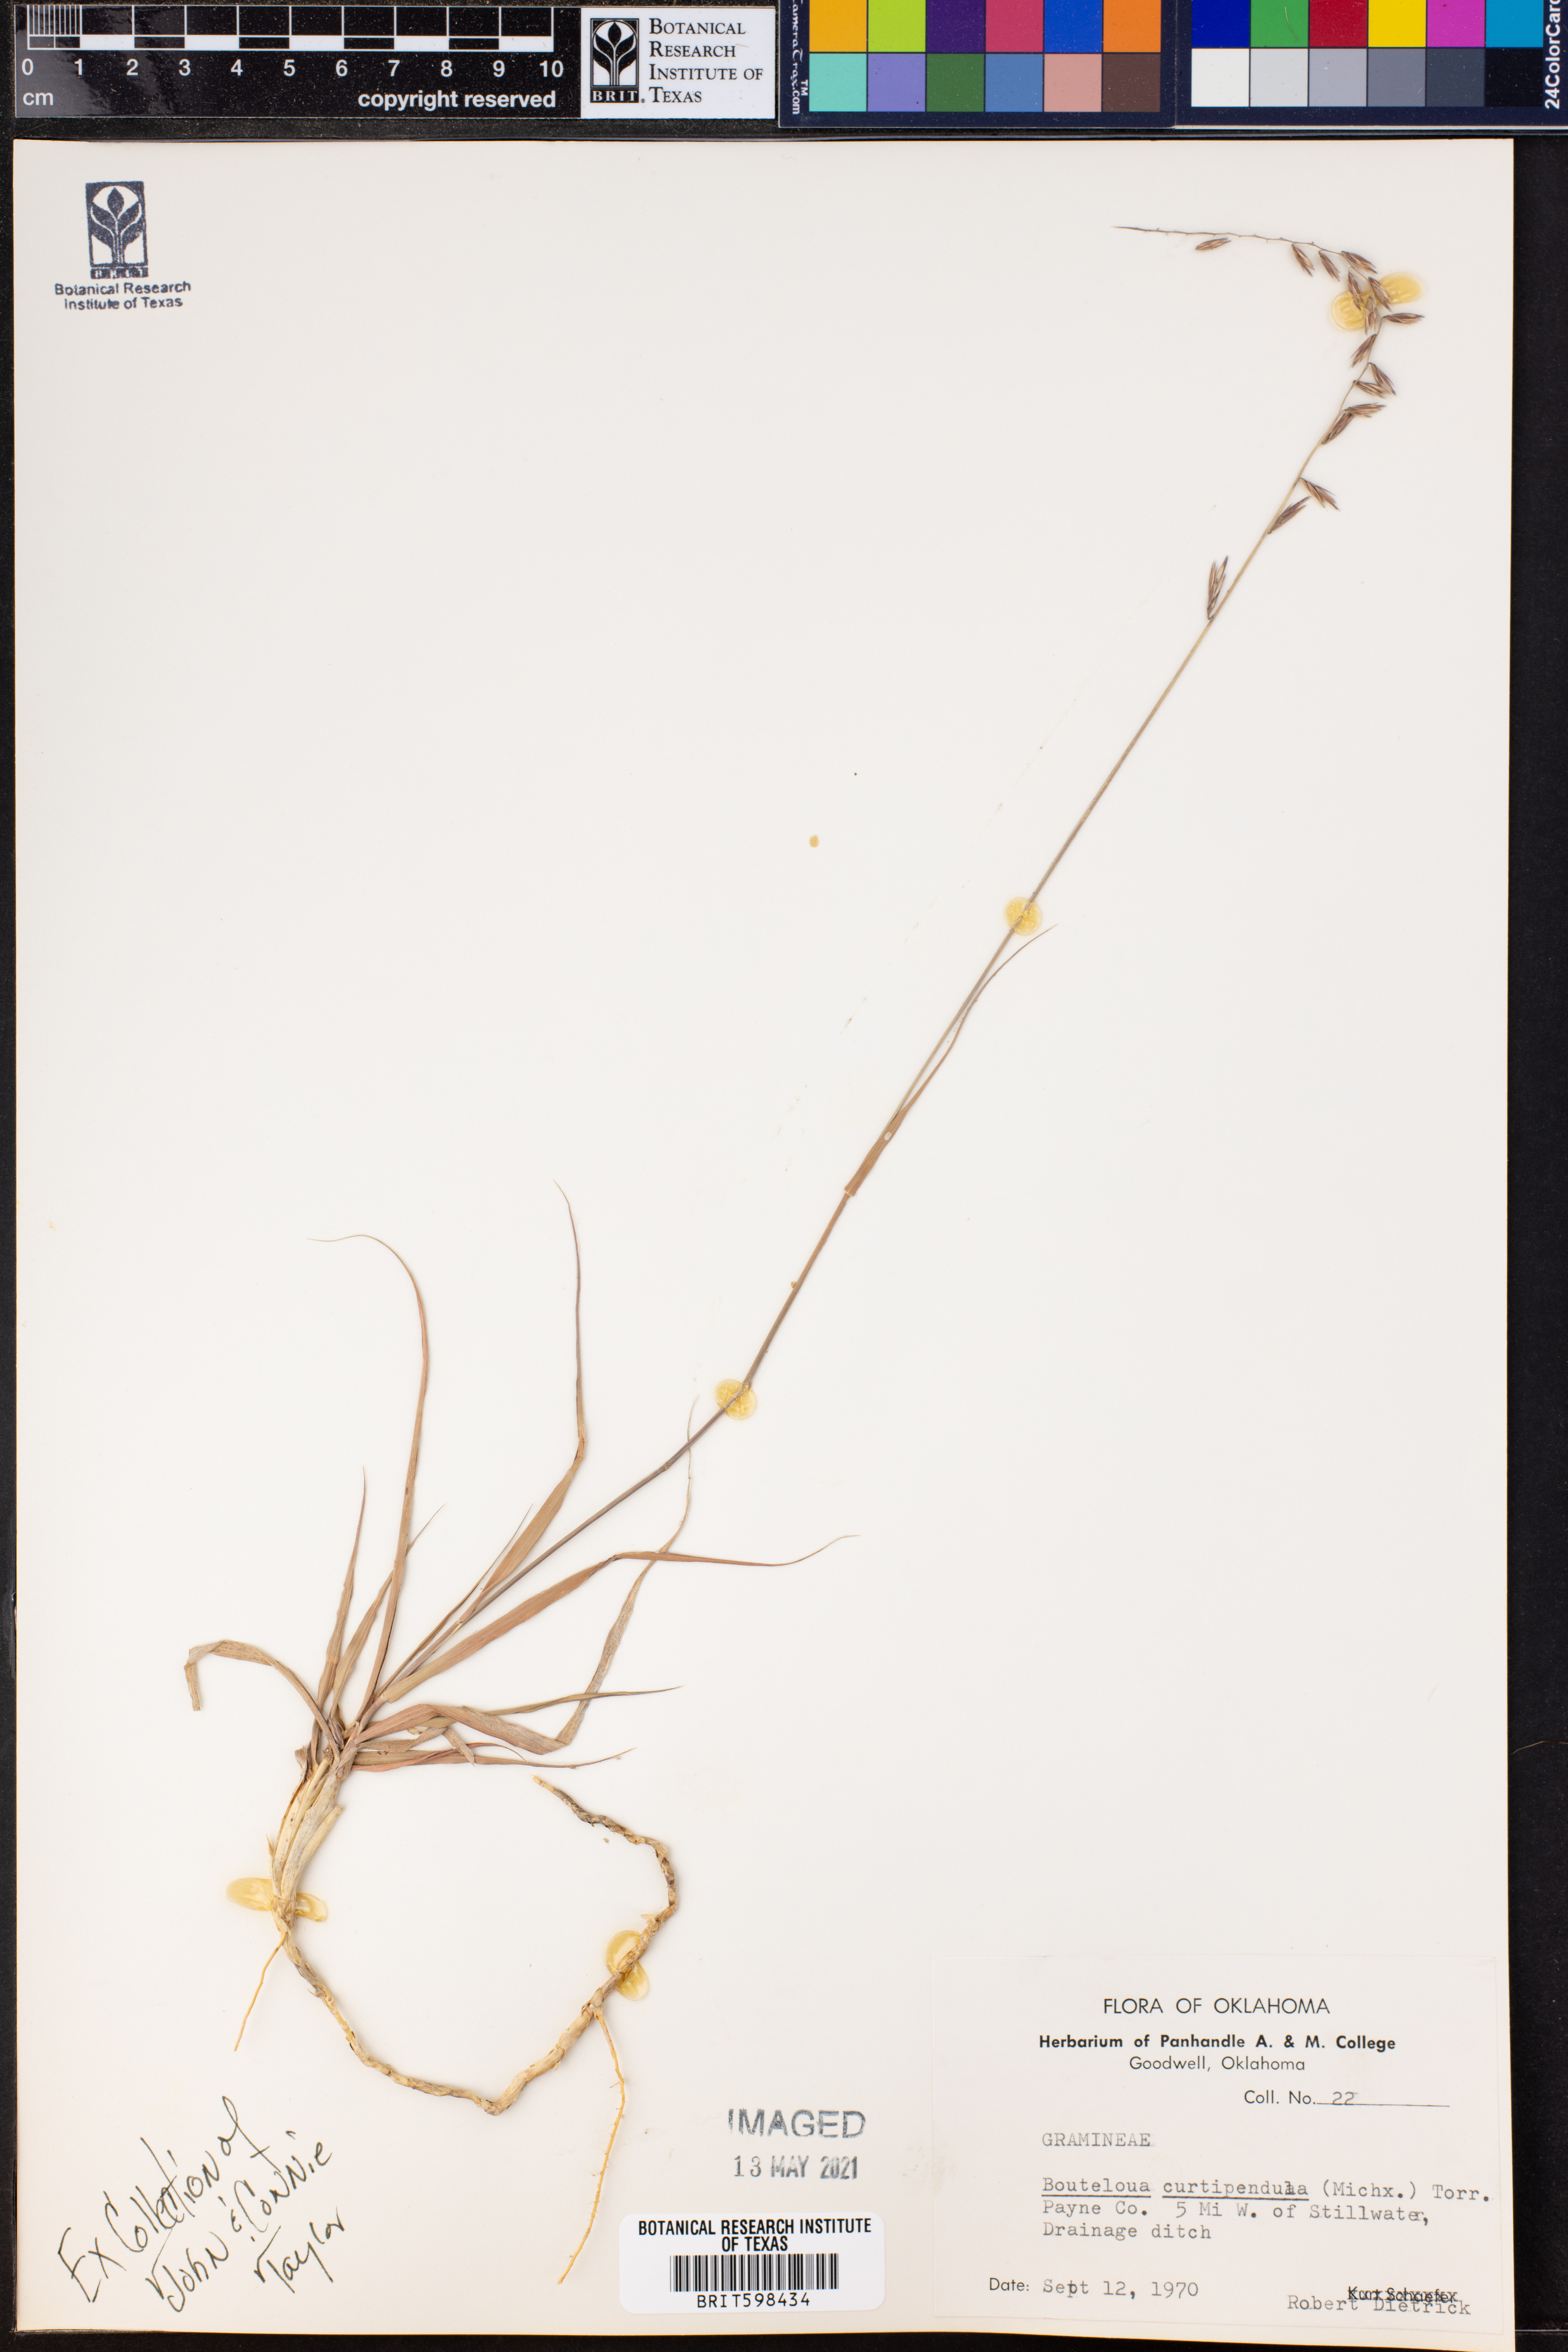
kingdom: Plantae
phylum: Tracheophyta
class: Liliopsida
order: Poales
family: Poaceae
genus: Bouteloua
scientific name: Bouteloua curtipendula
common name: Side-oats grama
